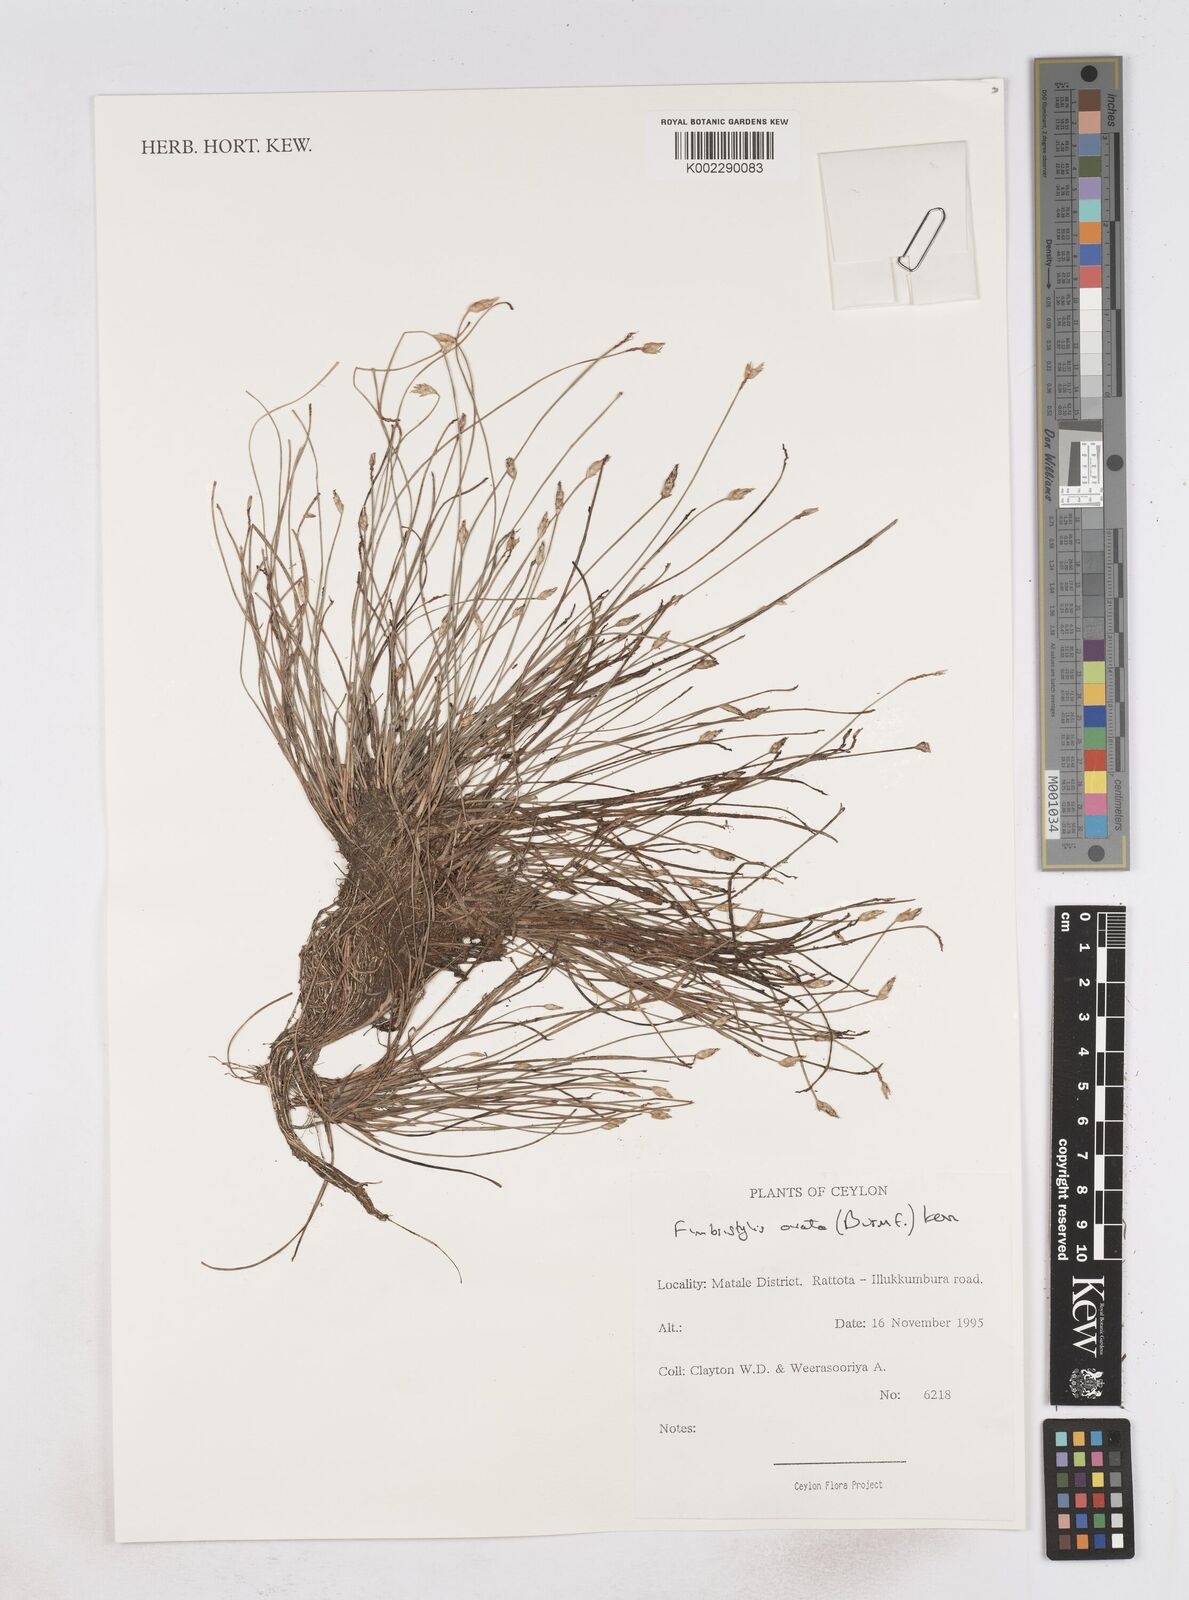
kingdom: Plantae
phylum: Tracheophyta
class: Liliopsida
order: Poales
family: Cyperaceae
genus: Abildgaardia
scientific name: Abildgaardia ovata
